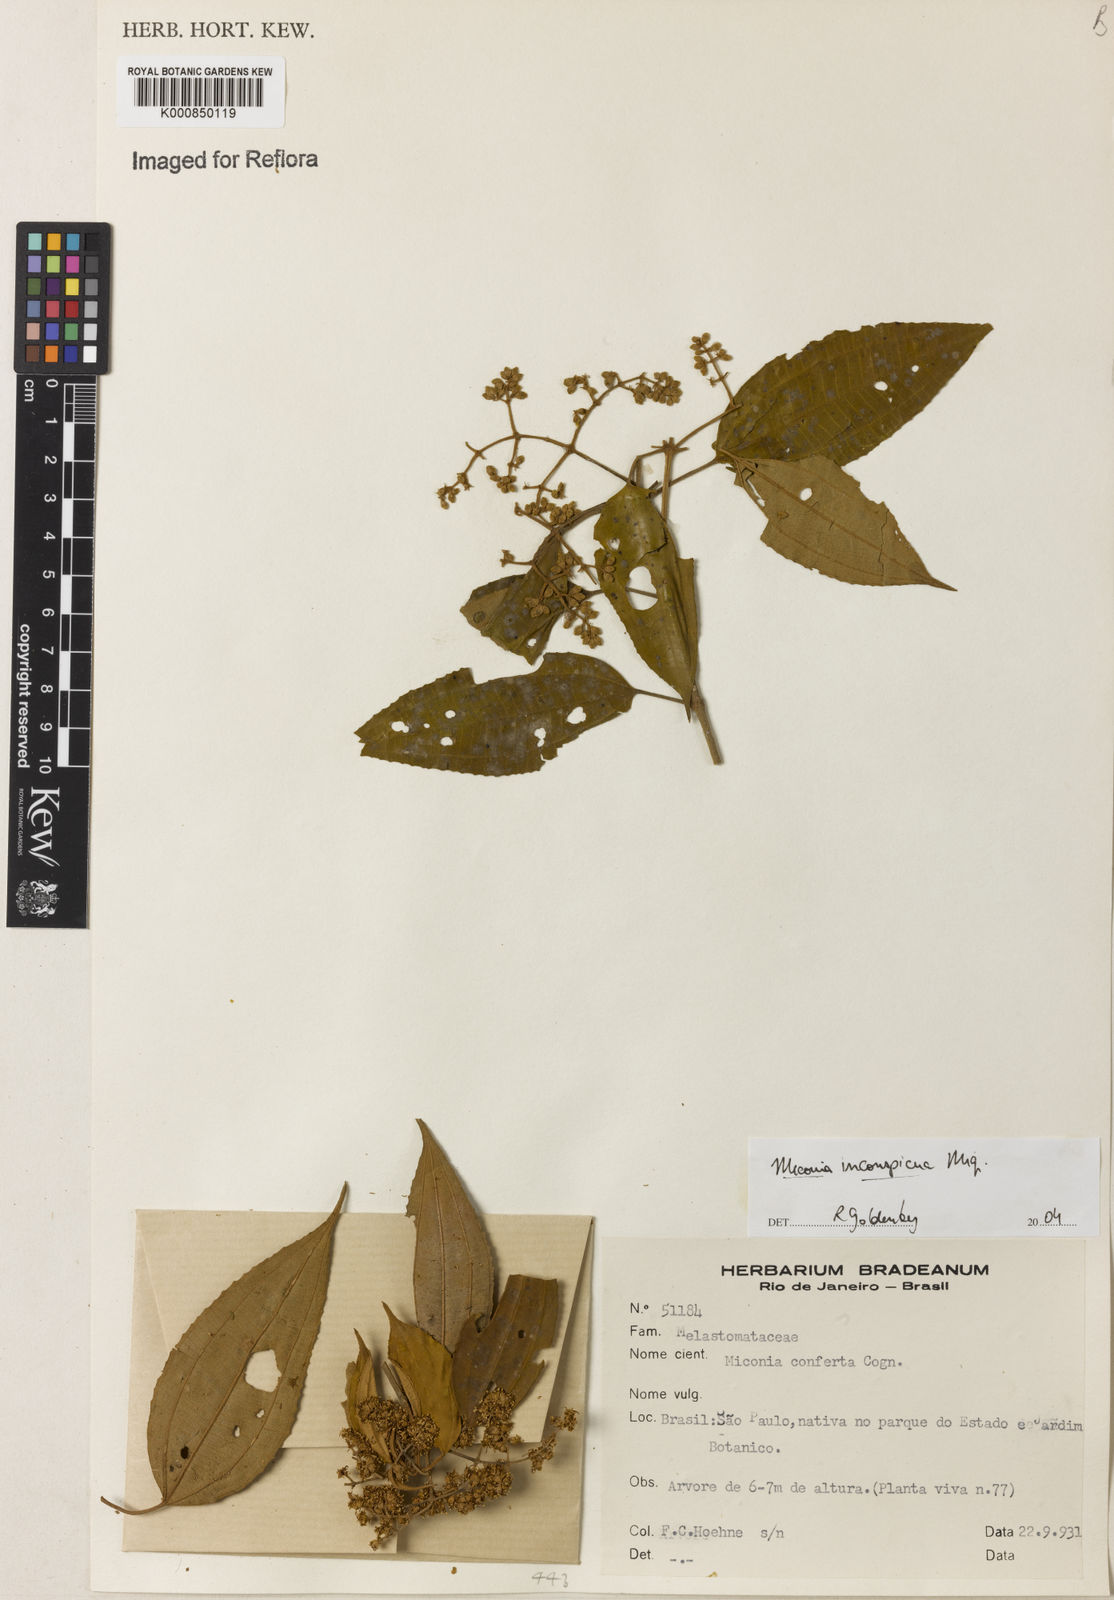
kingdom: Plantae
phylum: Tracheophyta
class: Magnoliopsida
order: Myrtales
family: Melastomataceae
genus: Miconia
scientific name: Miconia inconspicua
